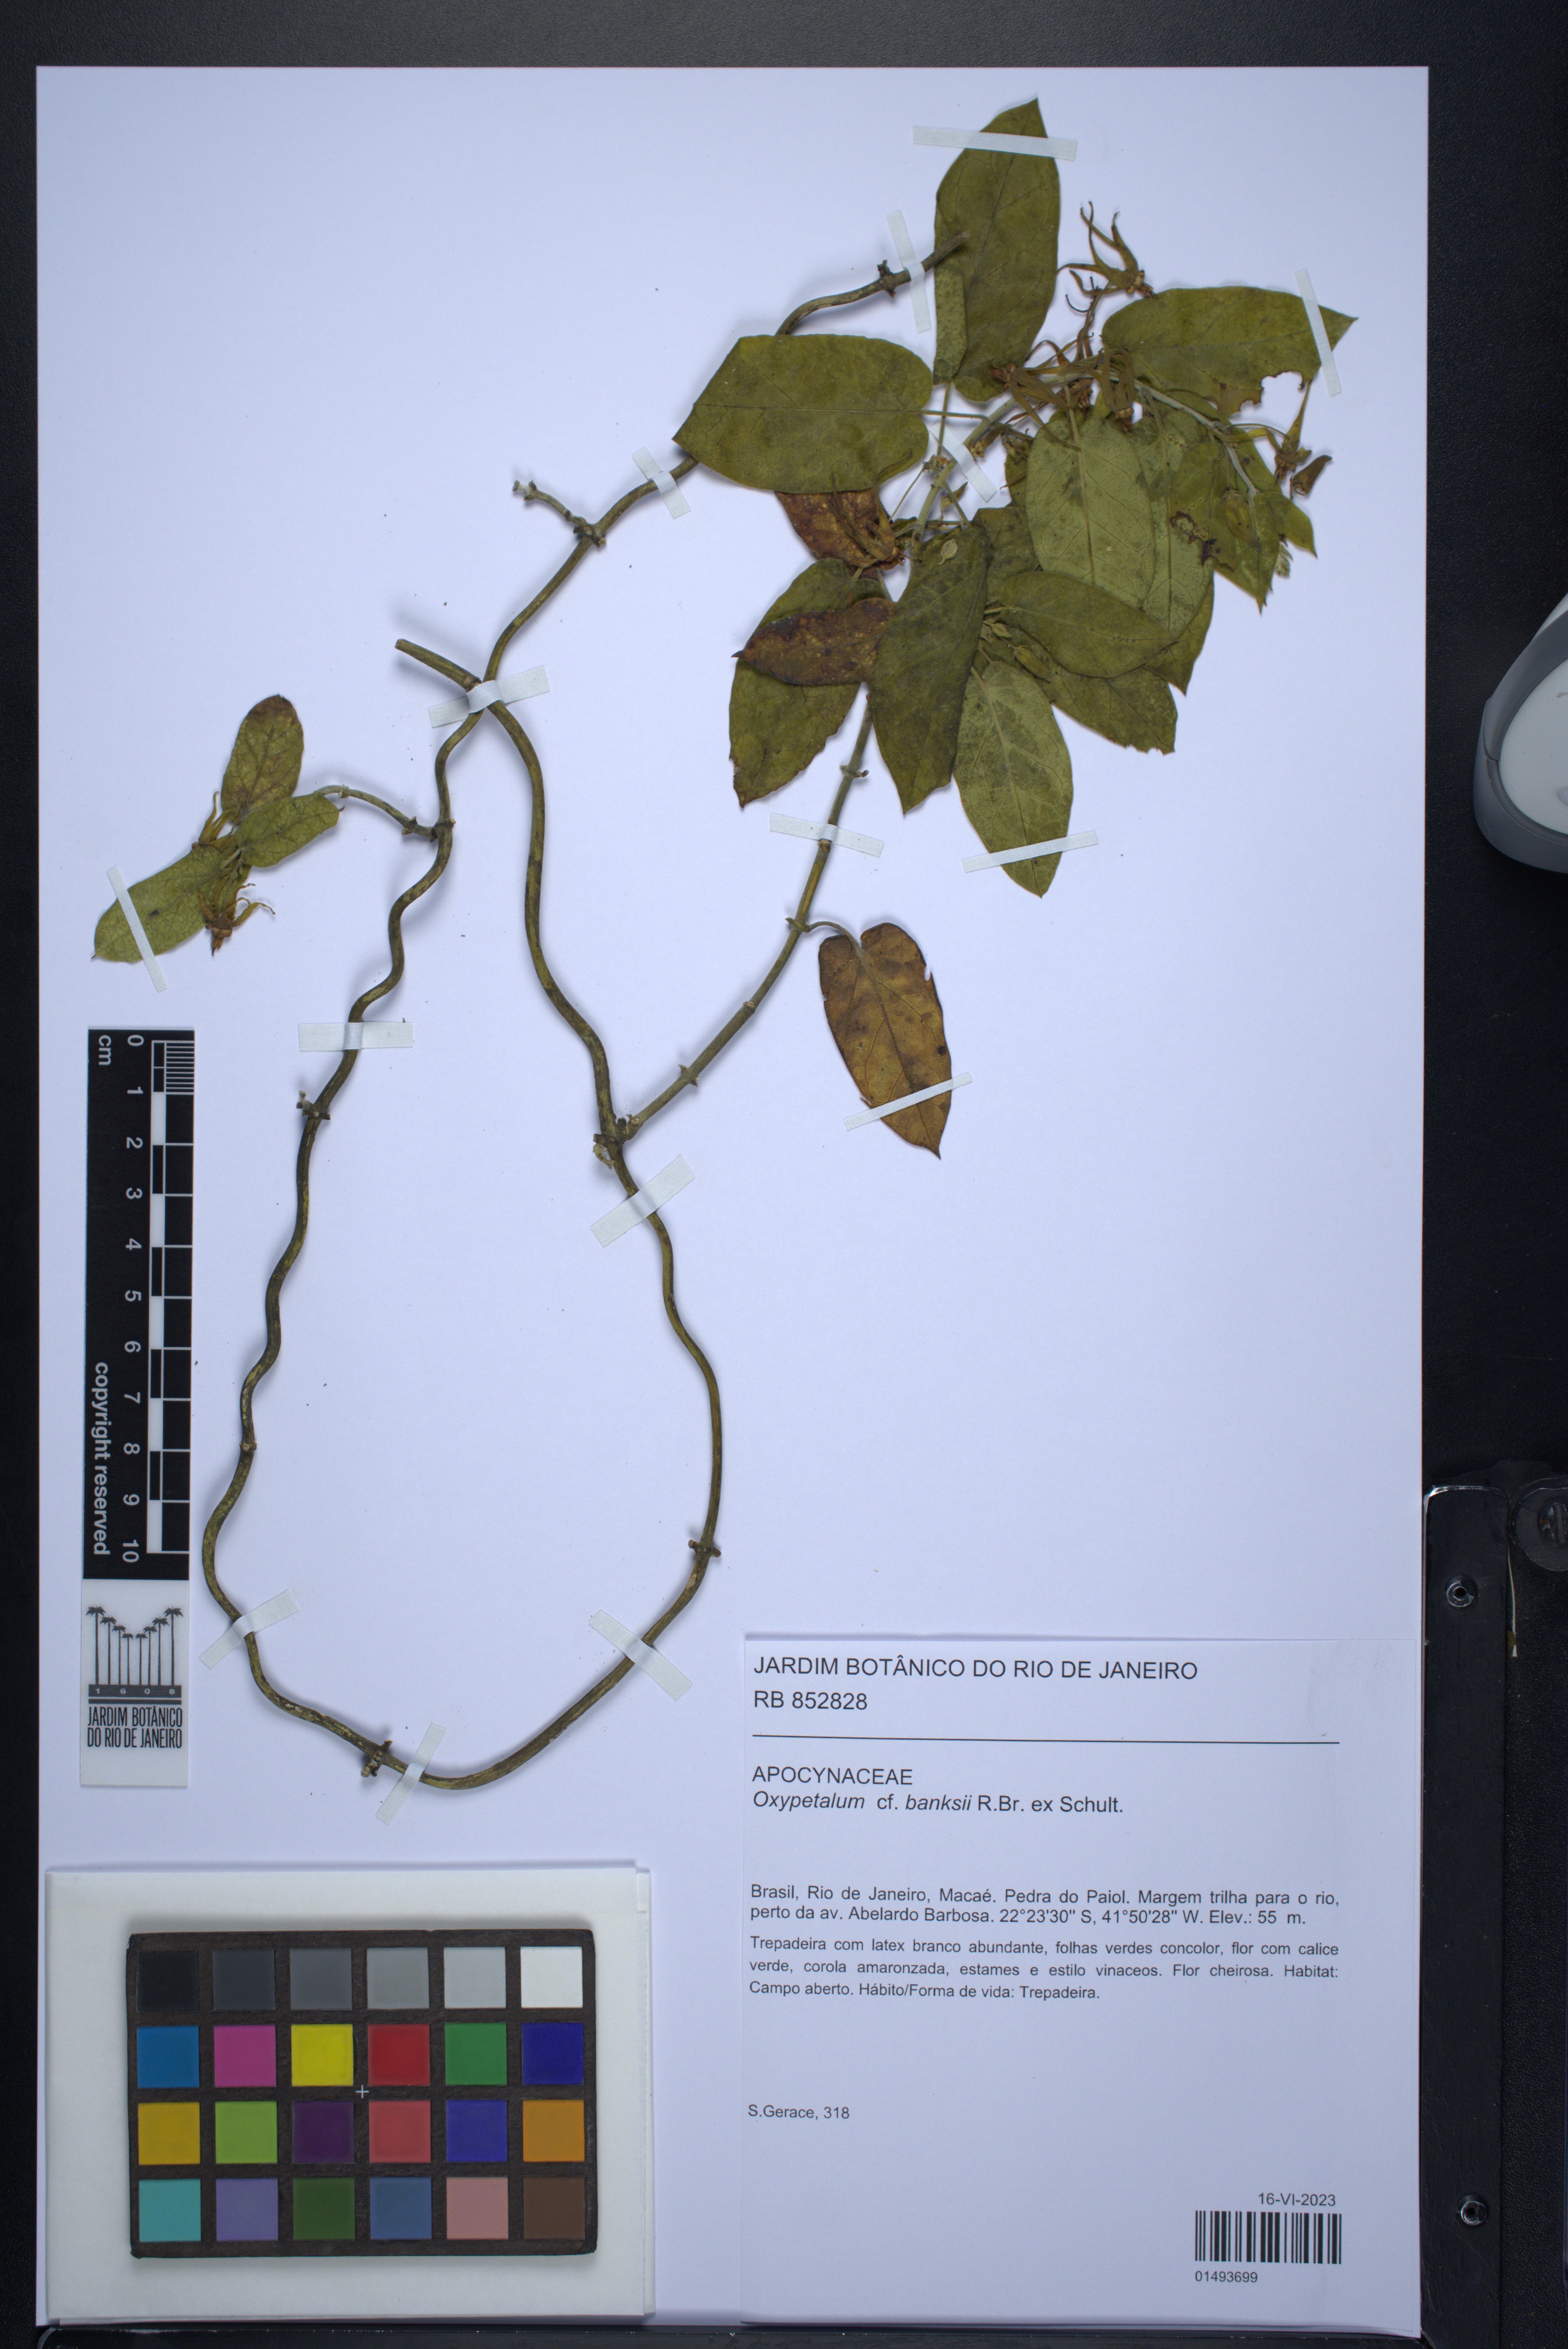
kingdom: Plantae
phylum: Tracheophyta
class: Magnoliopsida
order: Gentianales
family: Apocynaceae
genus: Oxypetalum
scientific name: Oxypetalum banksii
